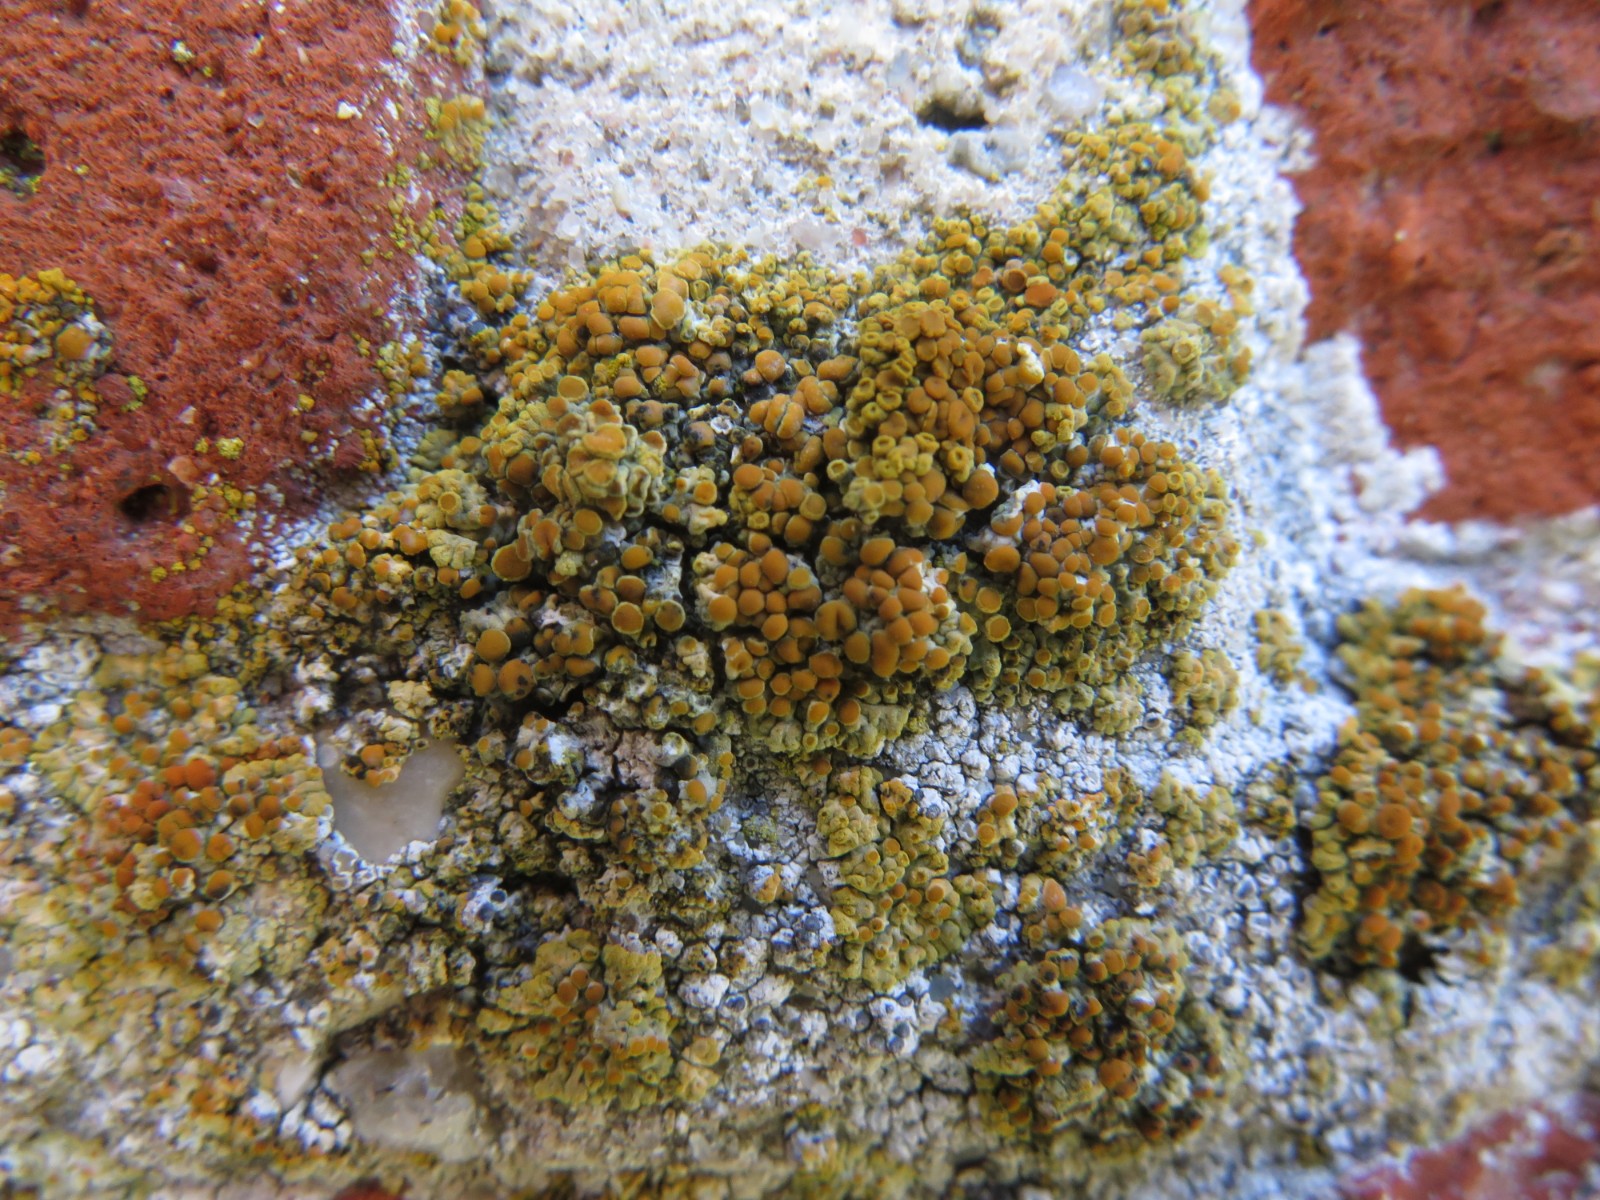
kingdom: Fungi
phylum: Ascomycota
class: Lecanoromycetes
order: Teloschistales
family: Teloschistaceae
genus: Calogaya
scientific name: Calogaya pusilla
